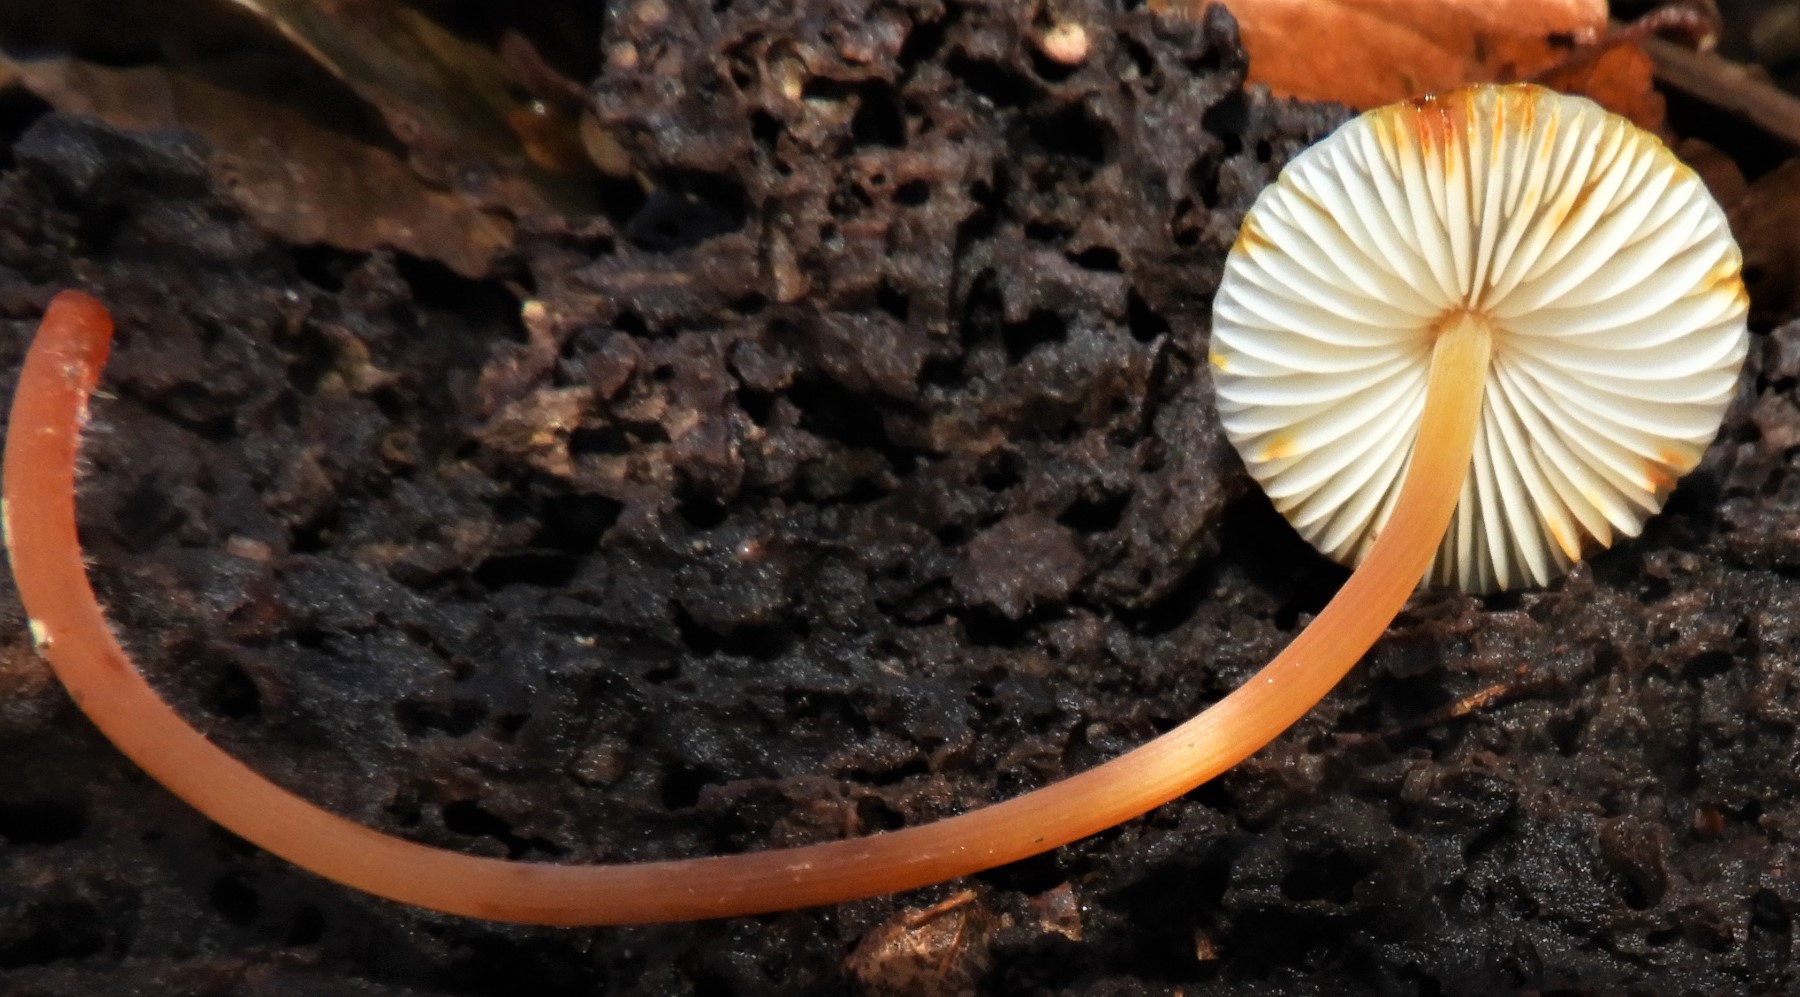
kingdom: Fungi
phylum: Basidiomycota
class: Agaricomycetes
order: Agaricales
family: Mycenaceae
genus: Mycena
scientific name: Mycena crocata
